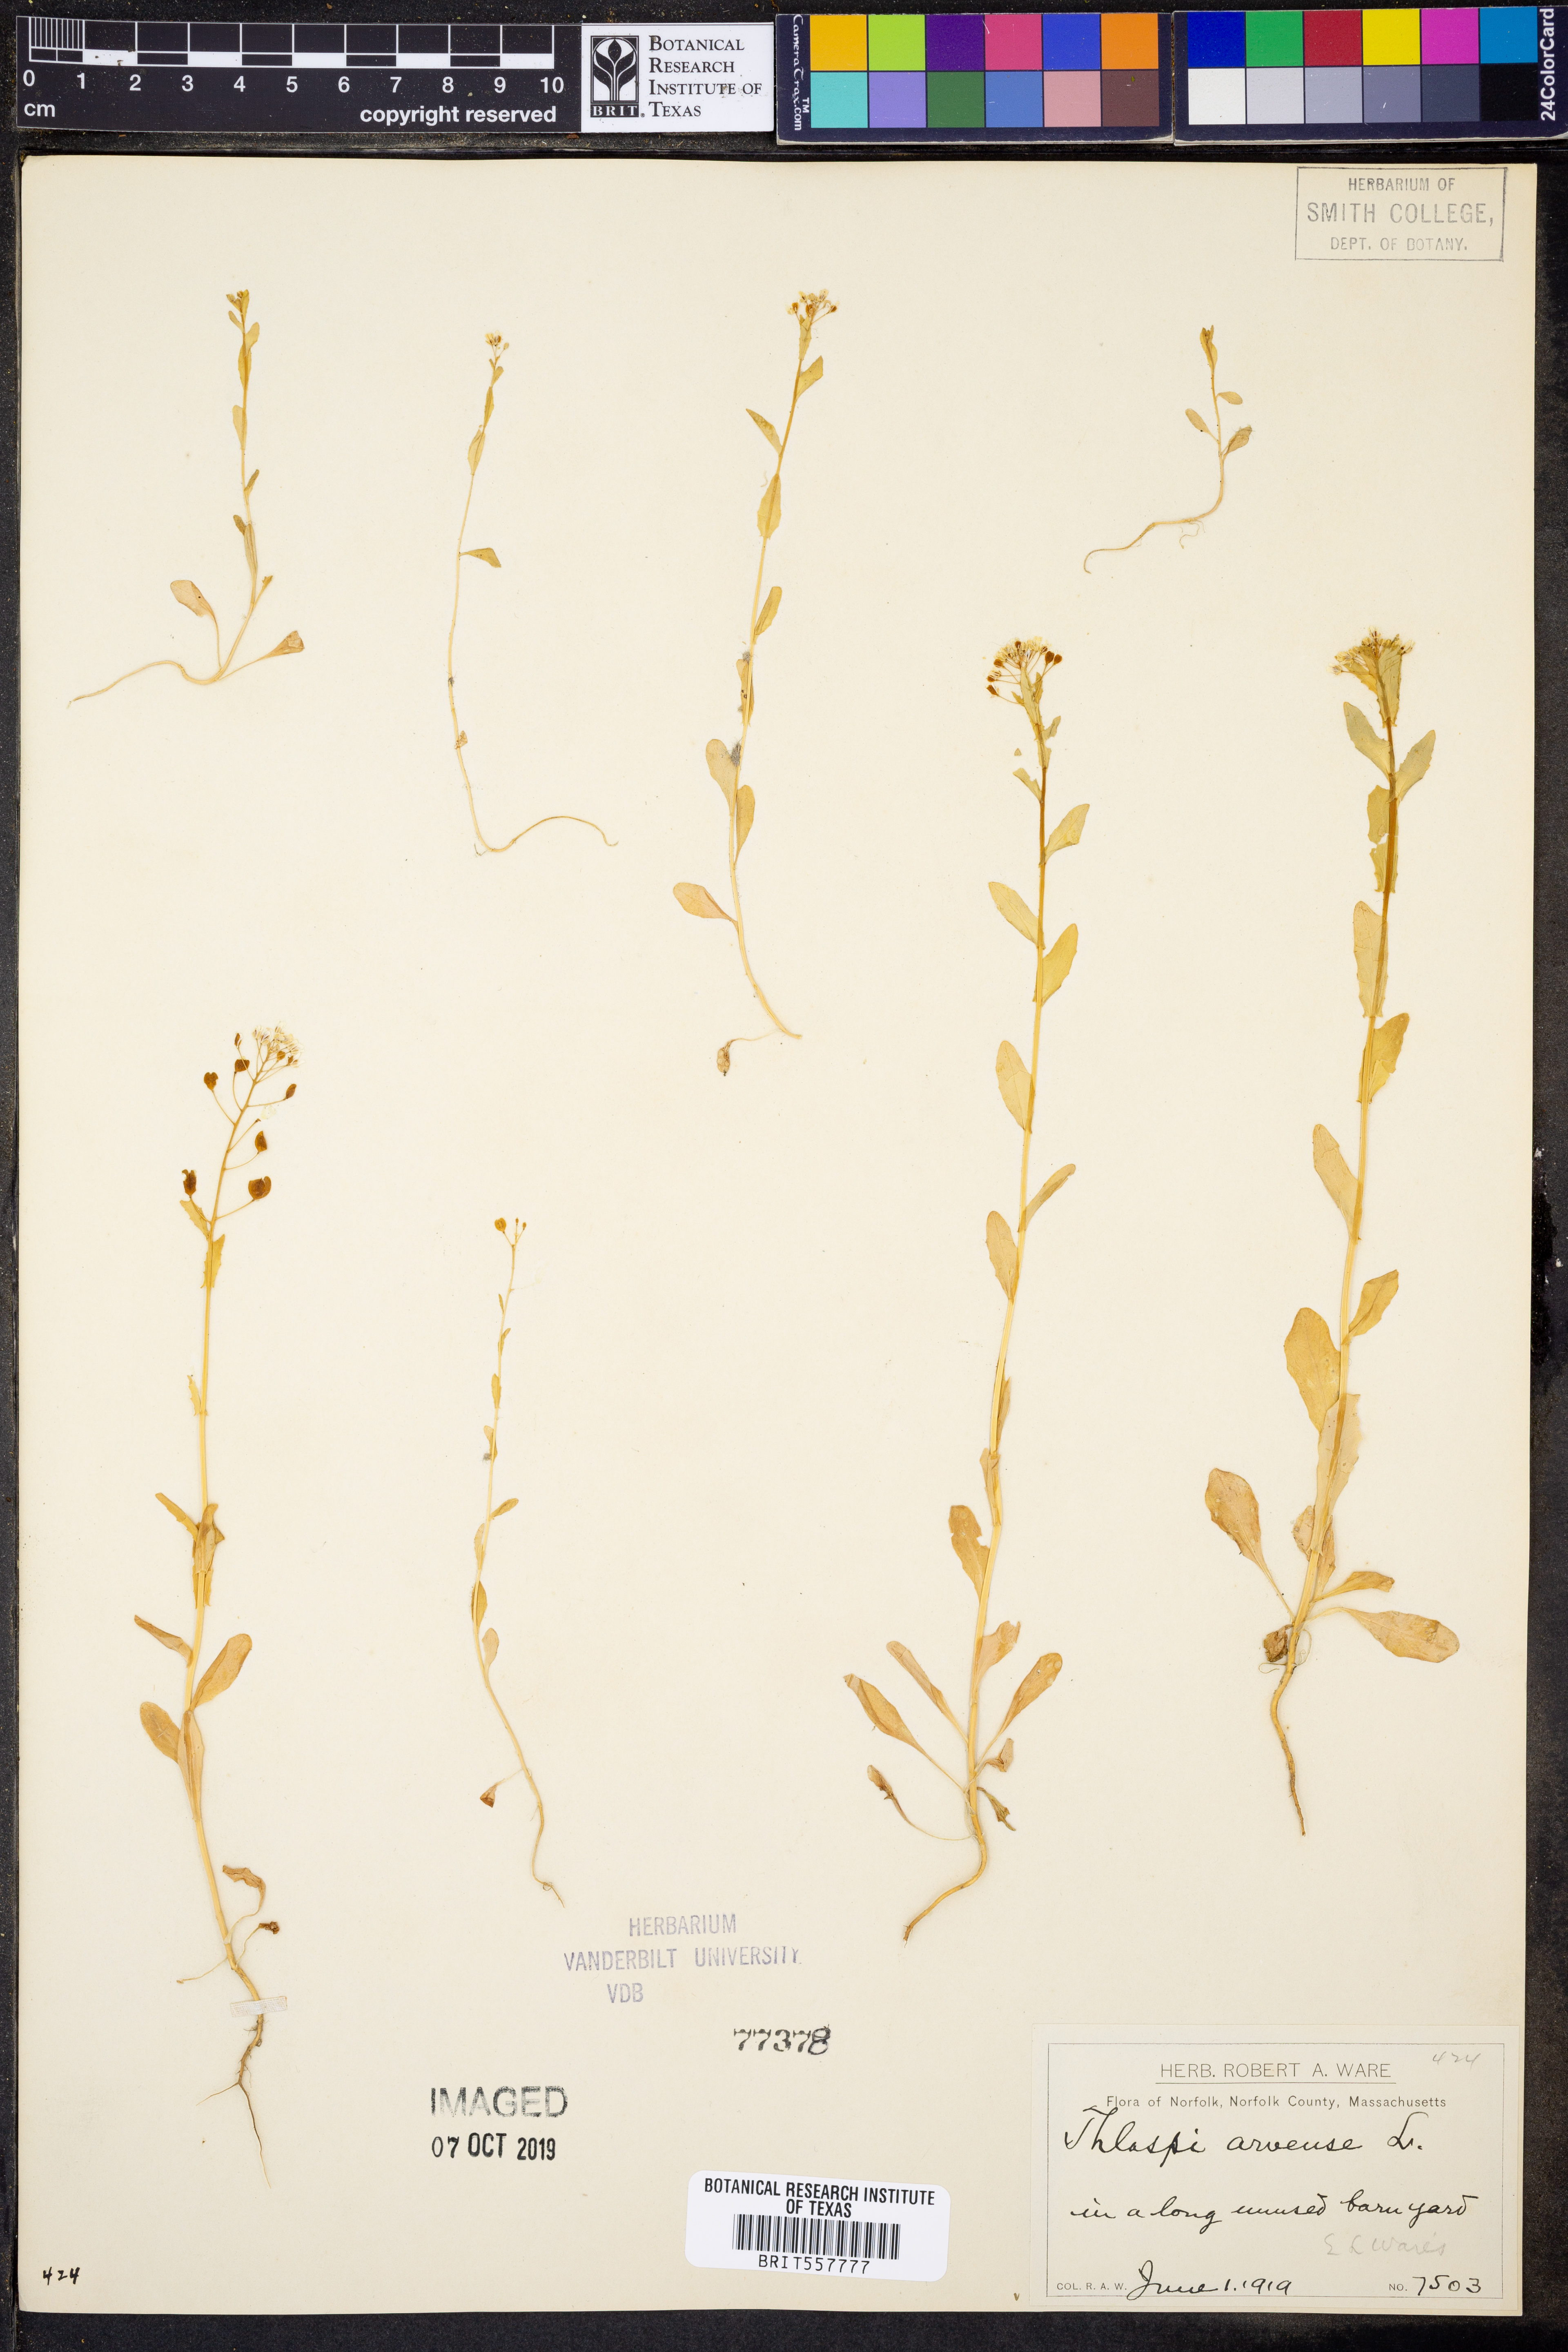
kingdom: Plantae
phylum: Tracheophyta
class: Magnoliopsida
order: Brassicales
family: Brassicaceae
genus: Thlaspi
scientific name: Thlaspi arvense
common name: Field pennycress
